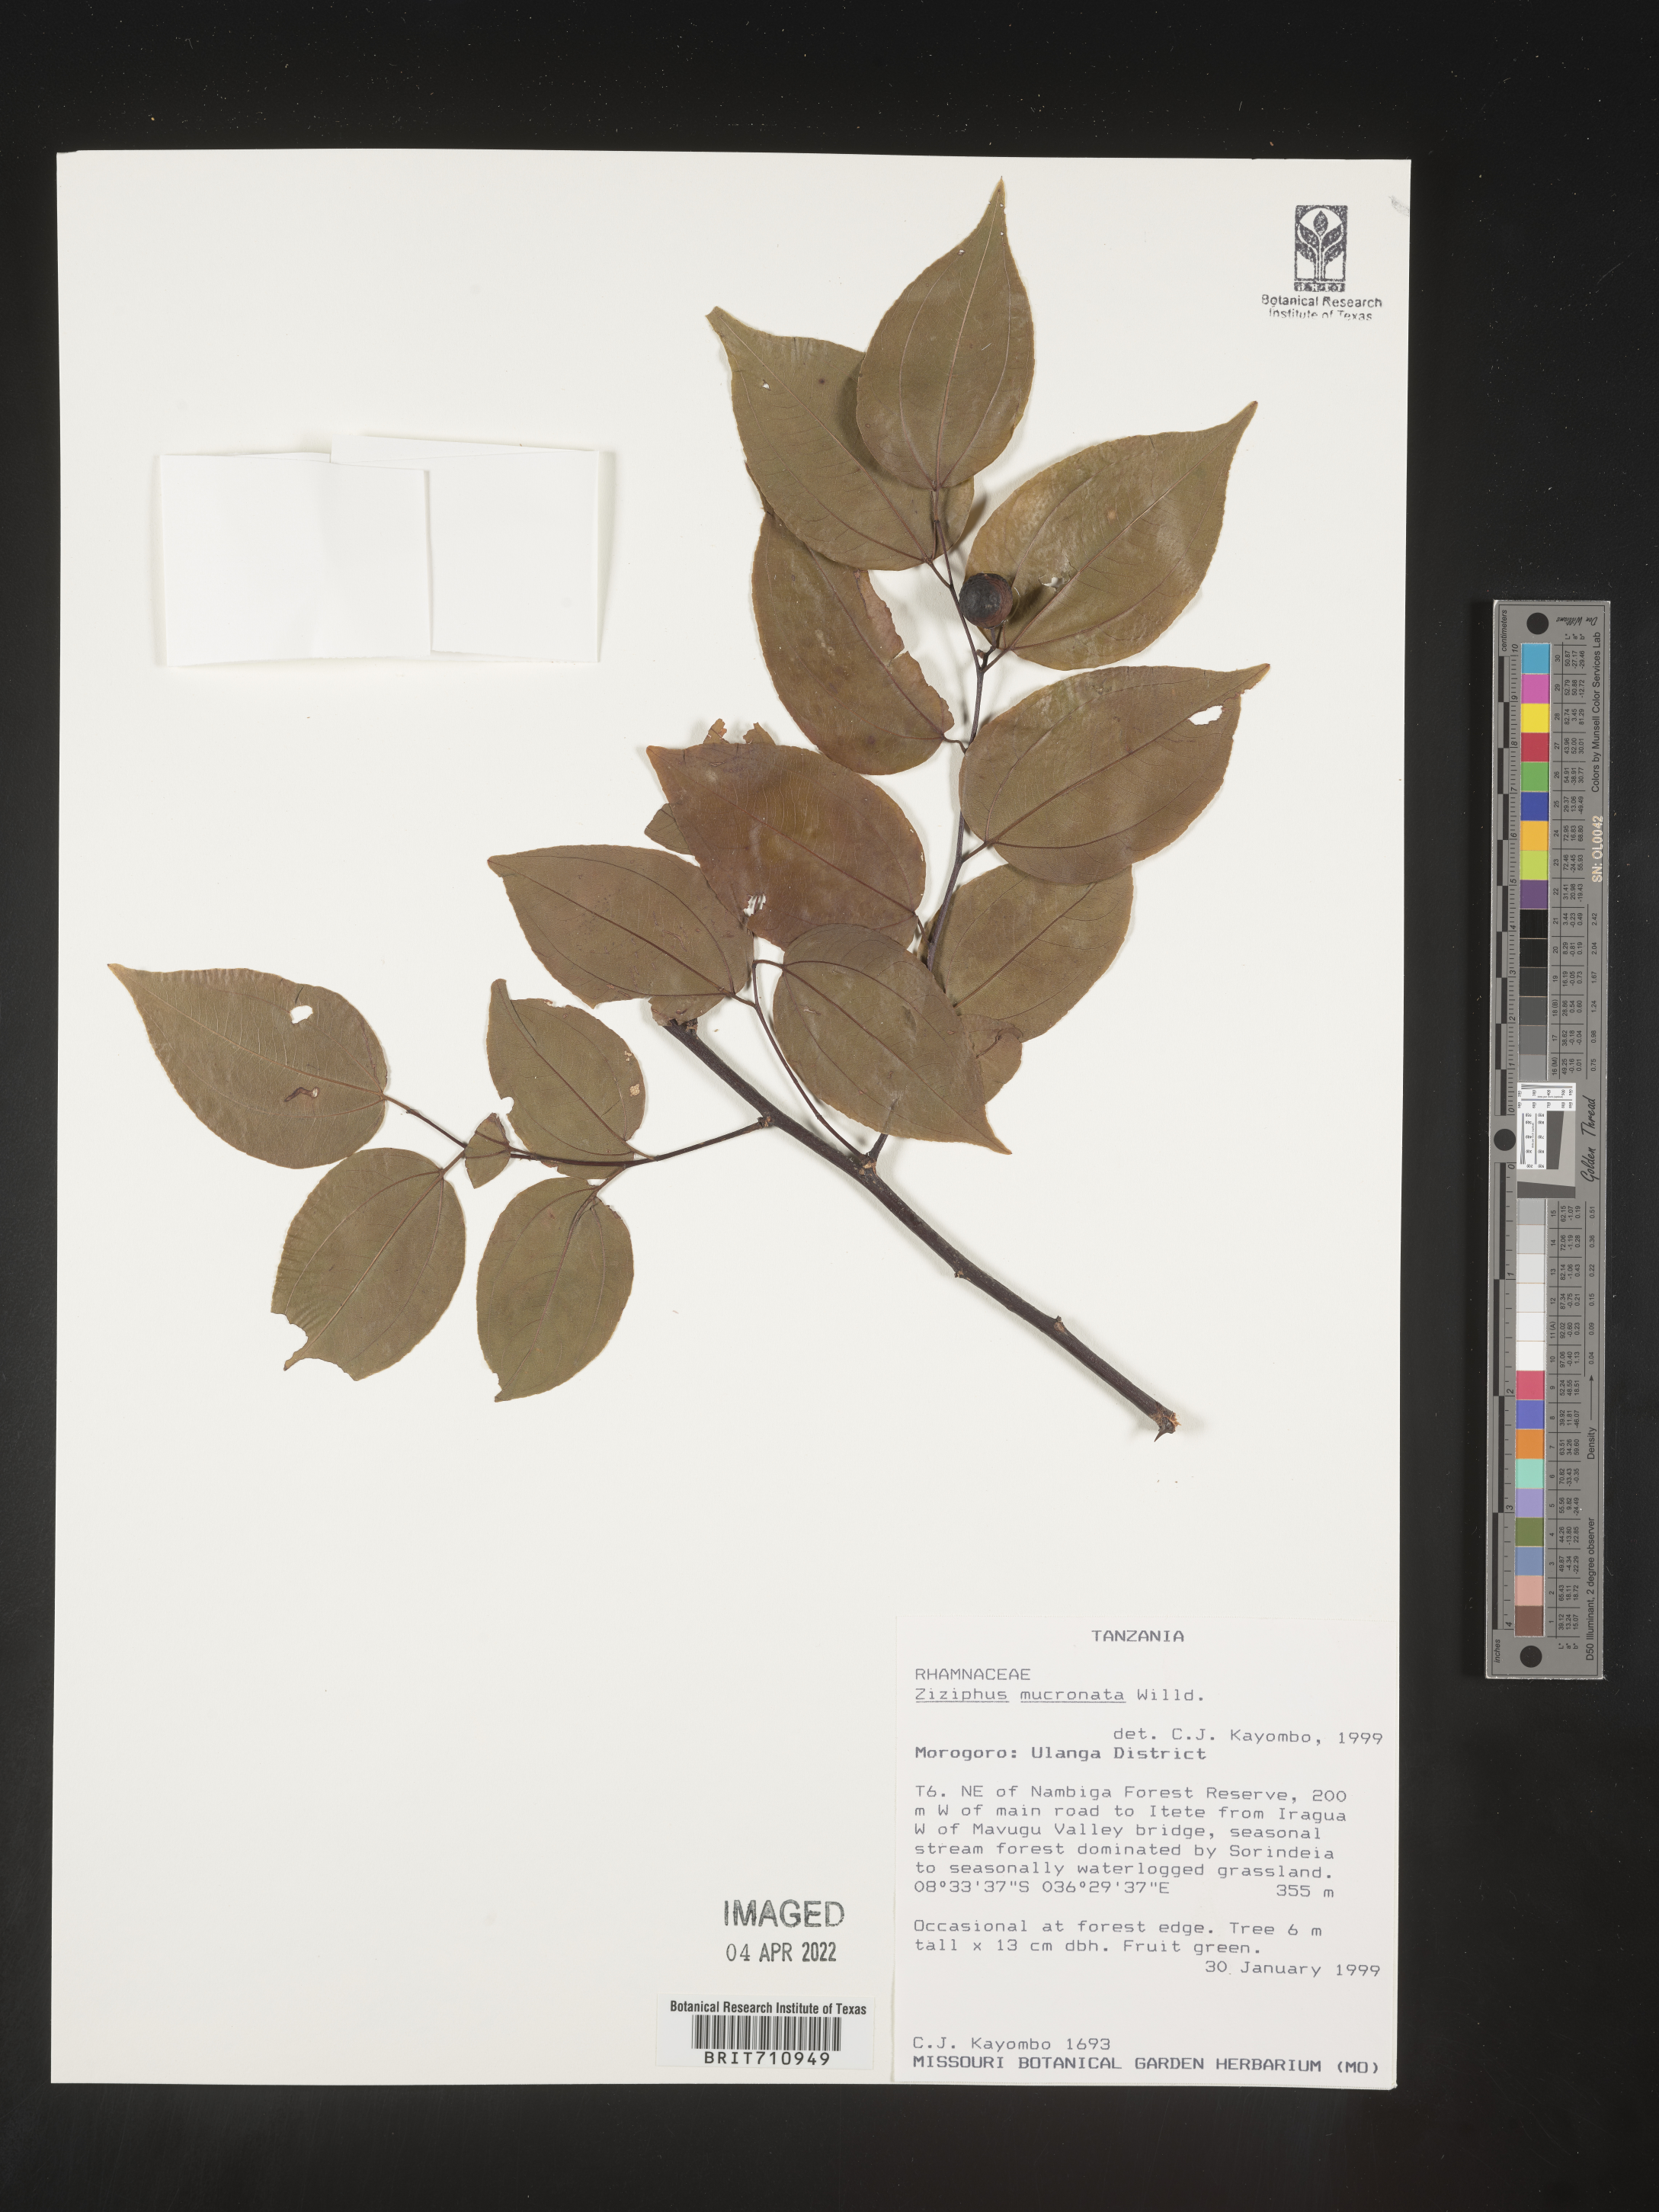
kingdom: Plantae
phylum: Tracheophyta
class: Magnoliopsida
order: Rosales
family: Rhamnaceae
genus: Ziziphus
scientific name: Ziziphus
